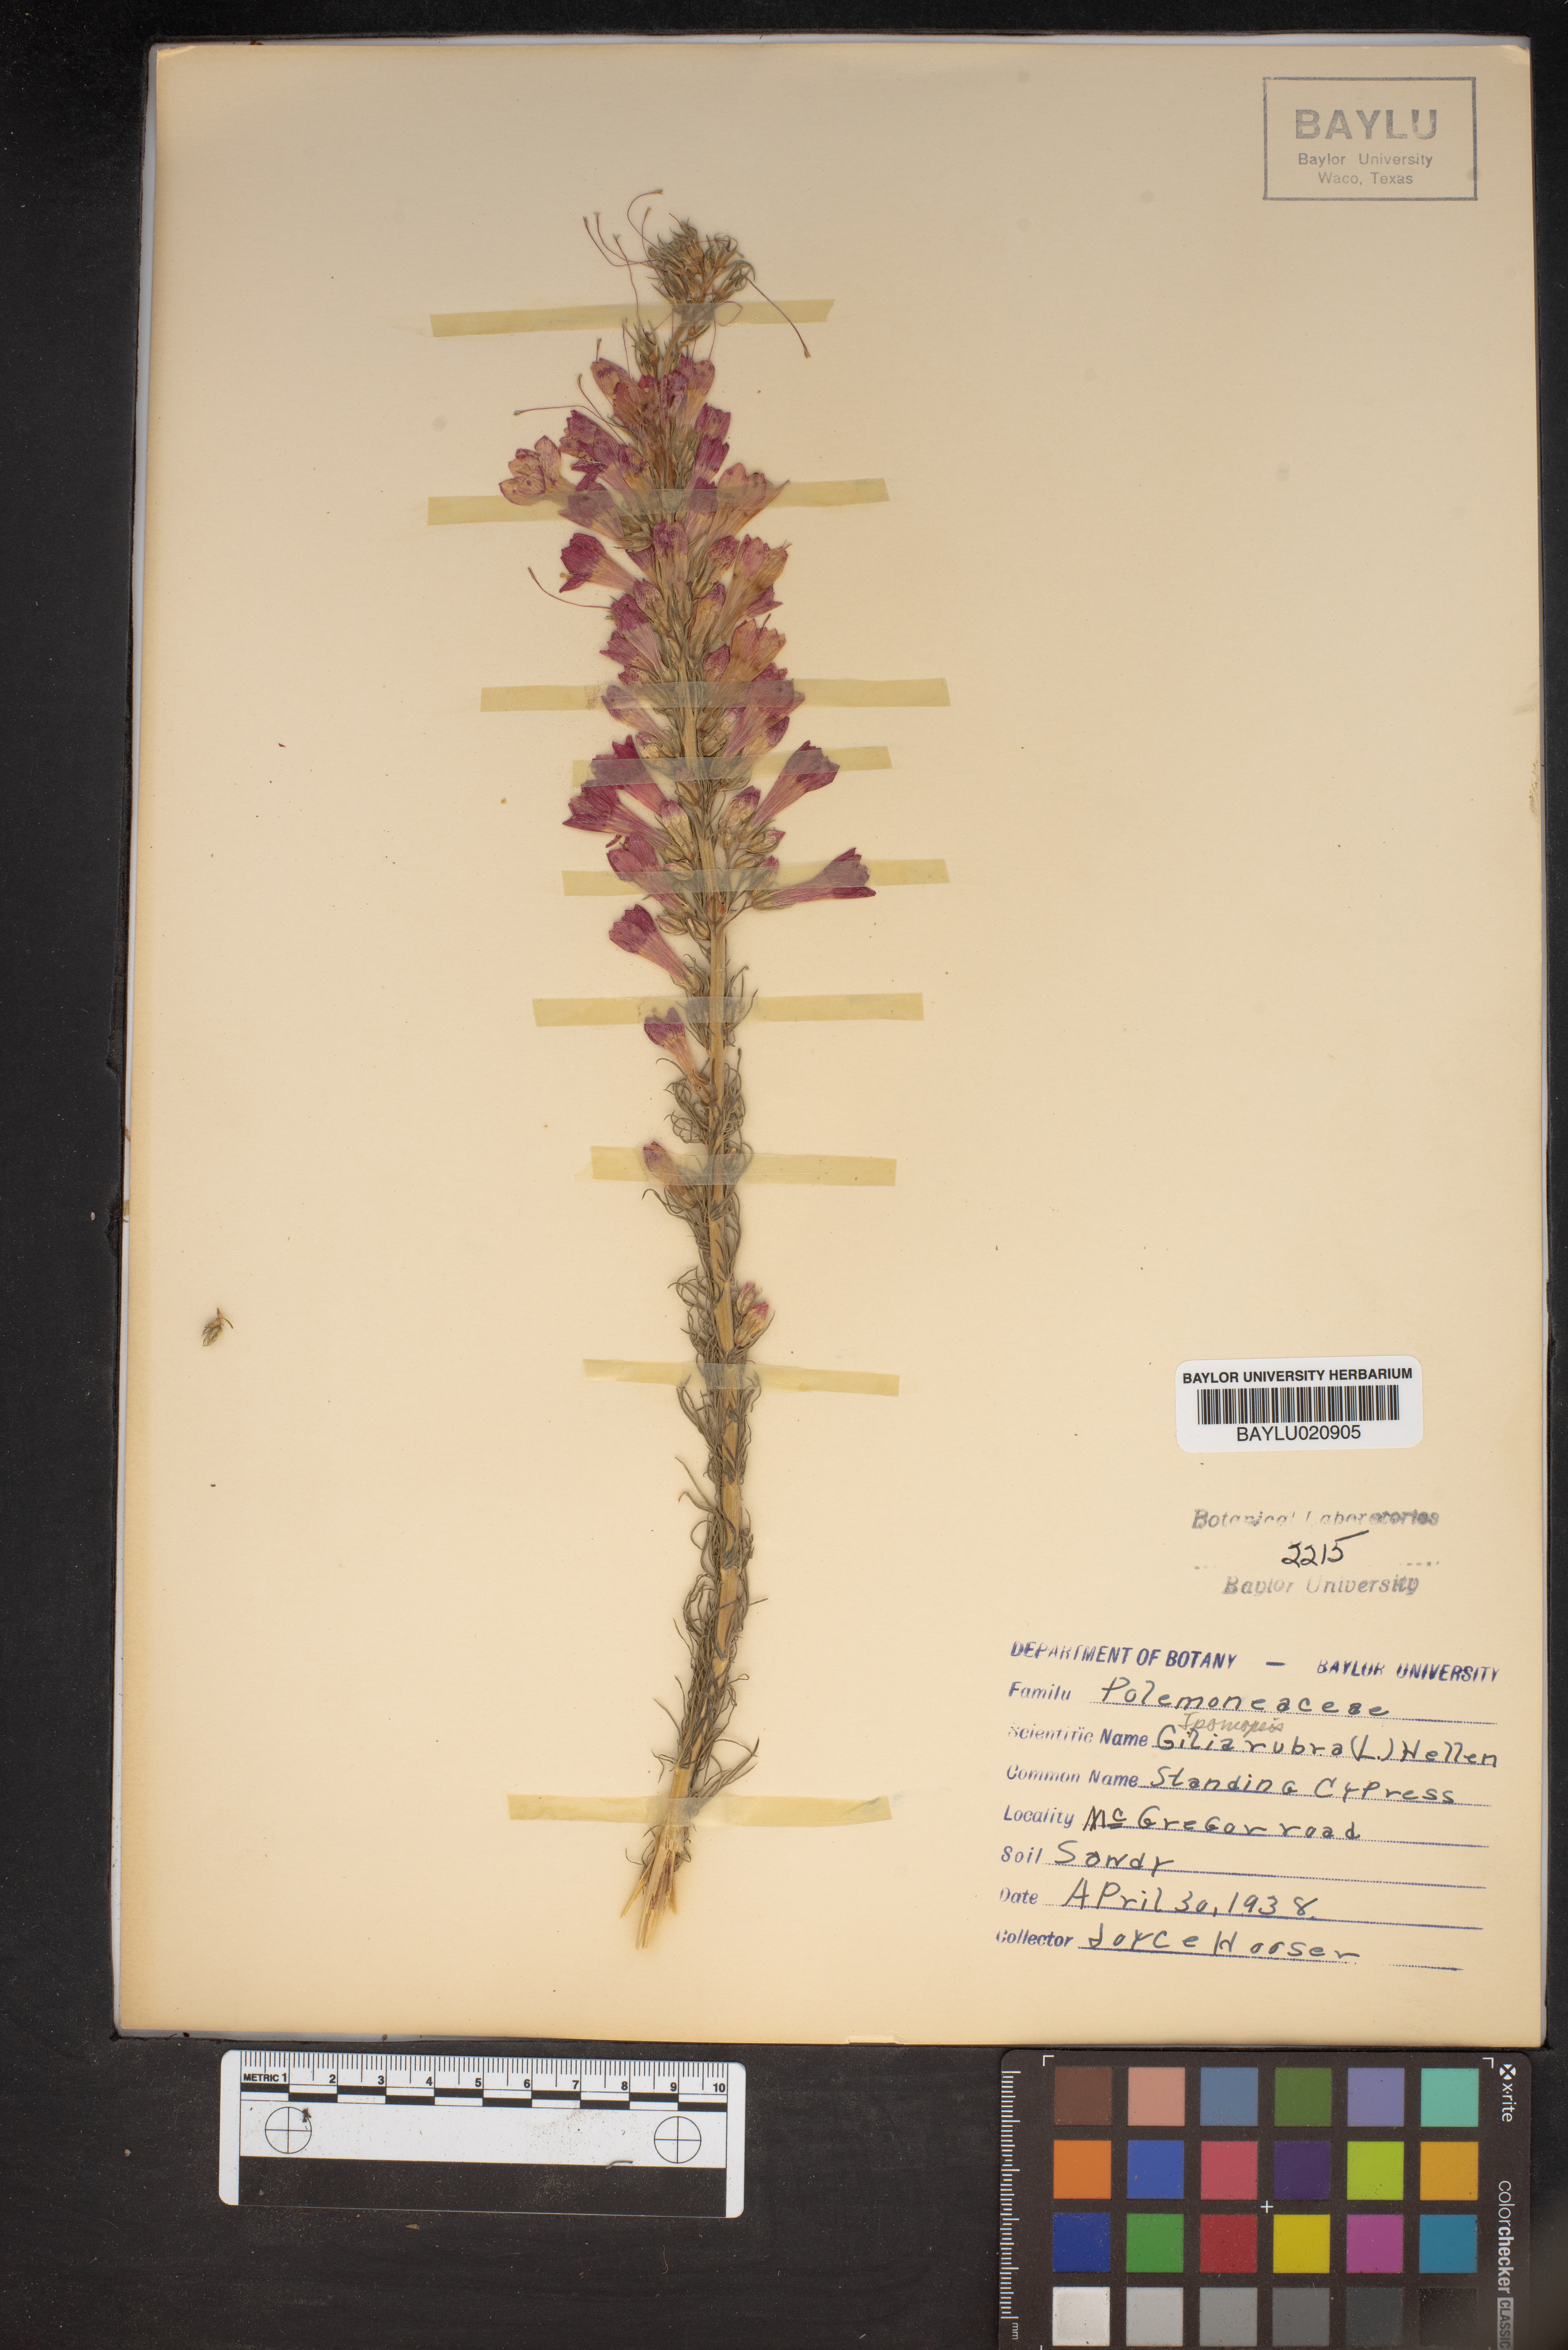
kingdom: Plantae
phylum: Tracheophyta
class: Magnoliopsida
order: Ericales
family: Polemoniaceae
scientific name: Polemoniaceae
